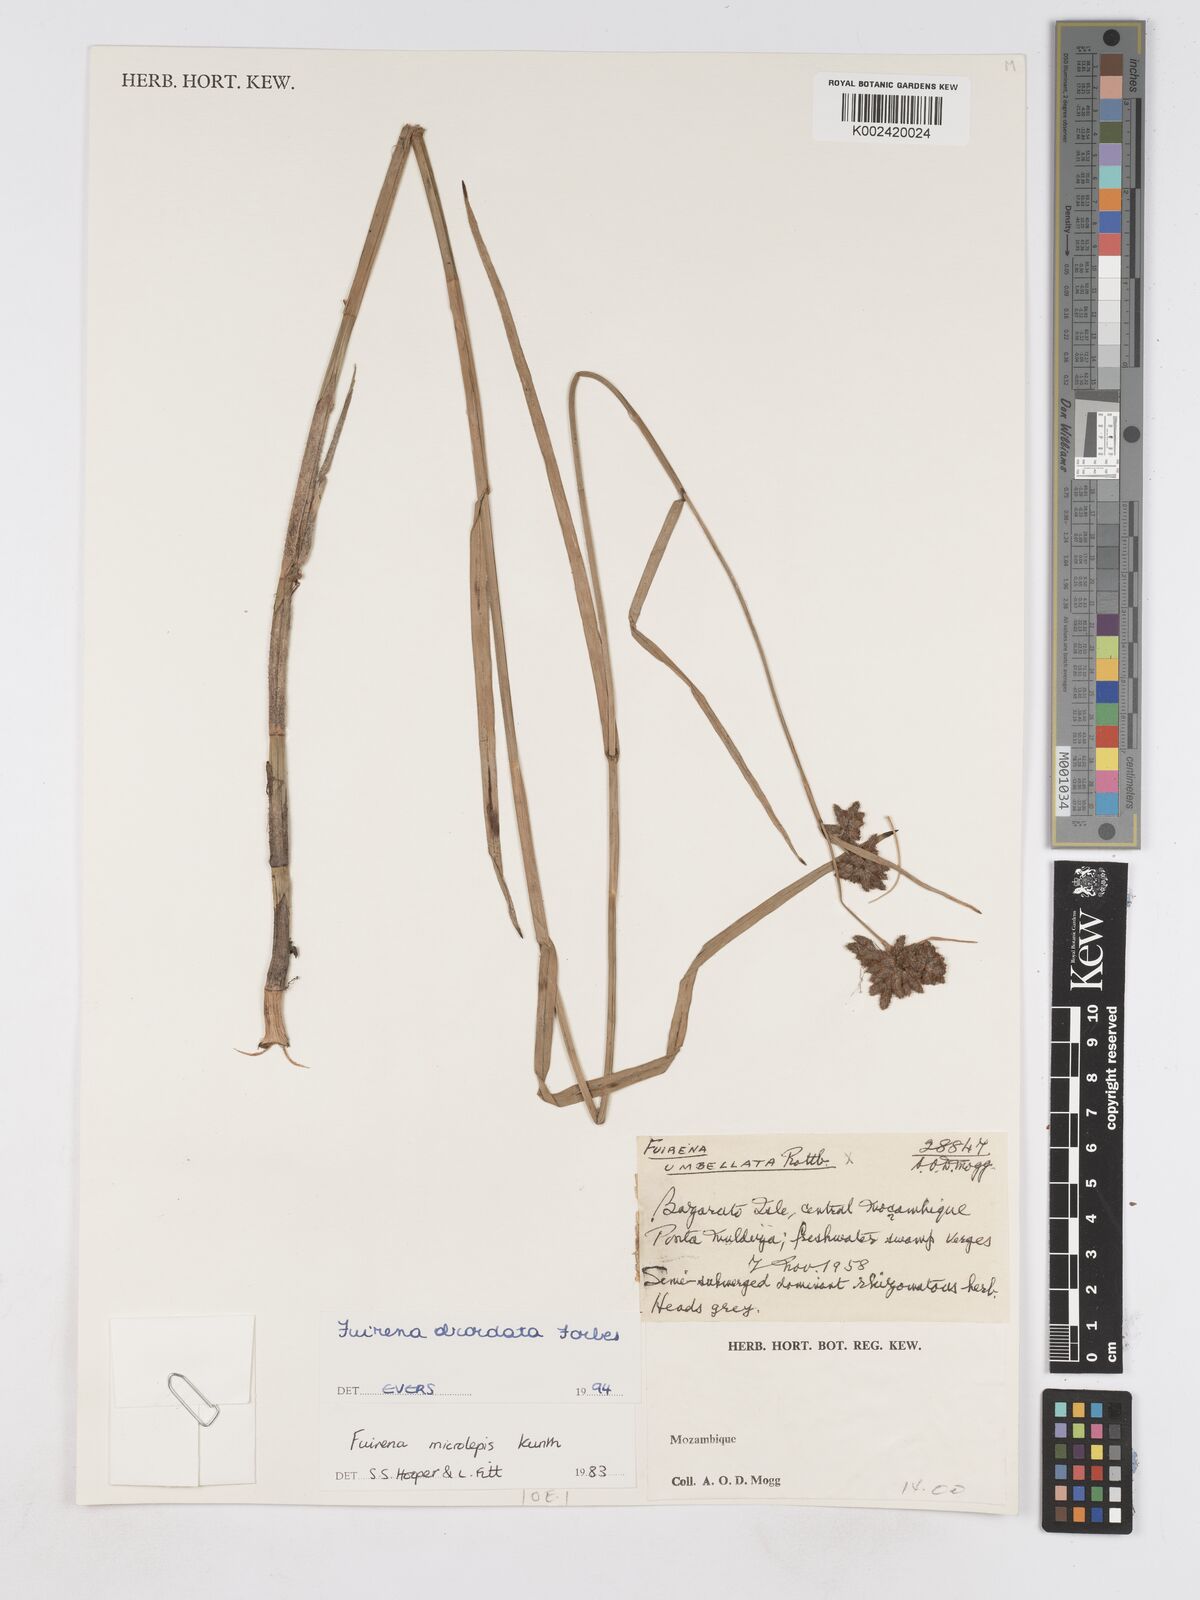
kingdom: Plantae
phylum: Tracheophyta
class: Liliopsida
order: Poales
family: Cyperaceae
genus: Fuirena
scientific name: Fuirena obcordata
